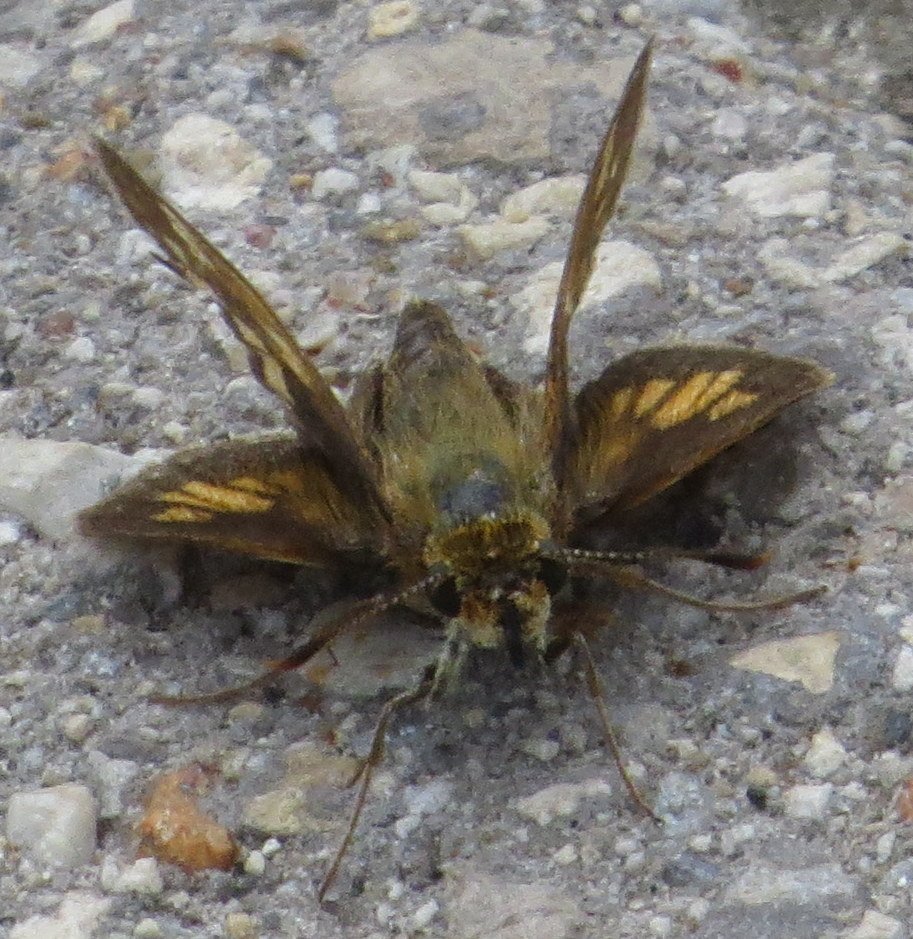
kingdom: Animalia
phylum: Arthropoda
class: Insecta
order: Lepidoptera
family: Hesperiidae
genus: Polites
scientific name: Polites coras
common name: Peck's Skipper
